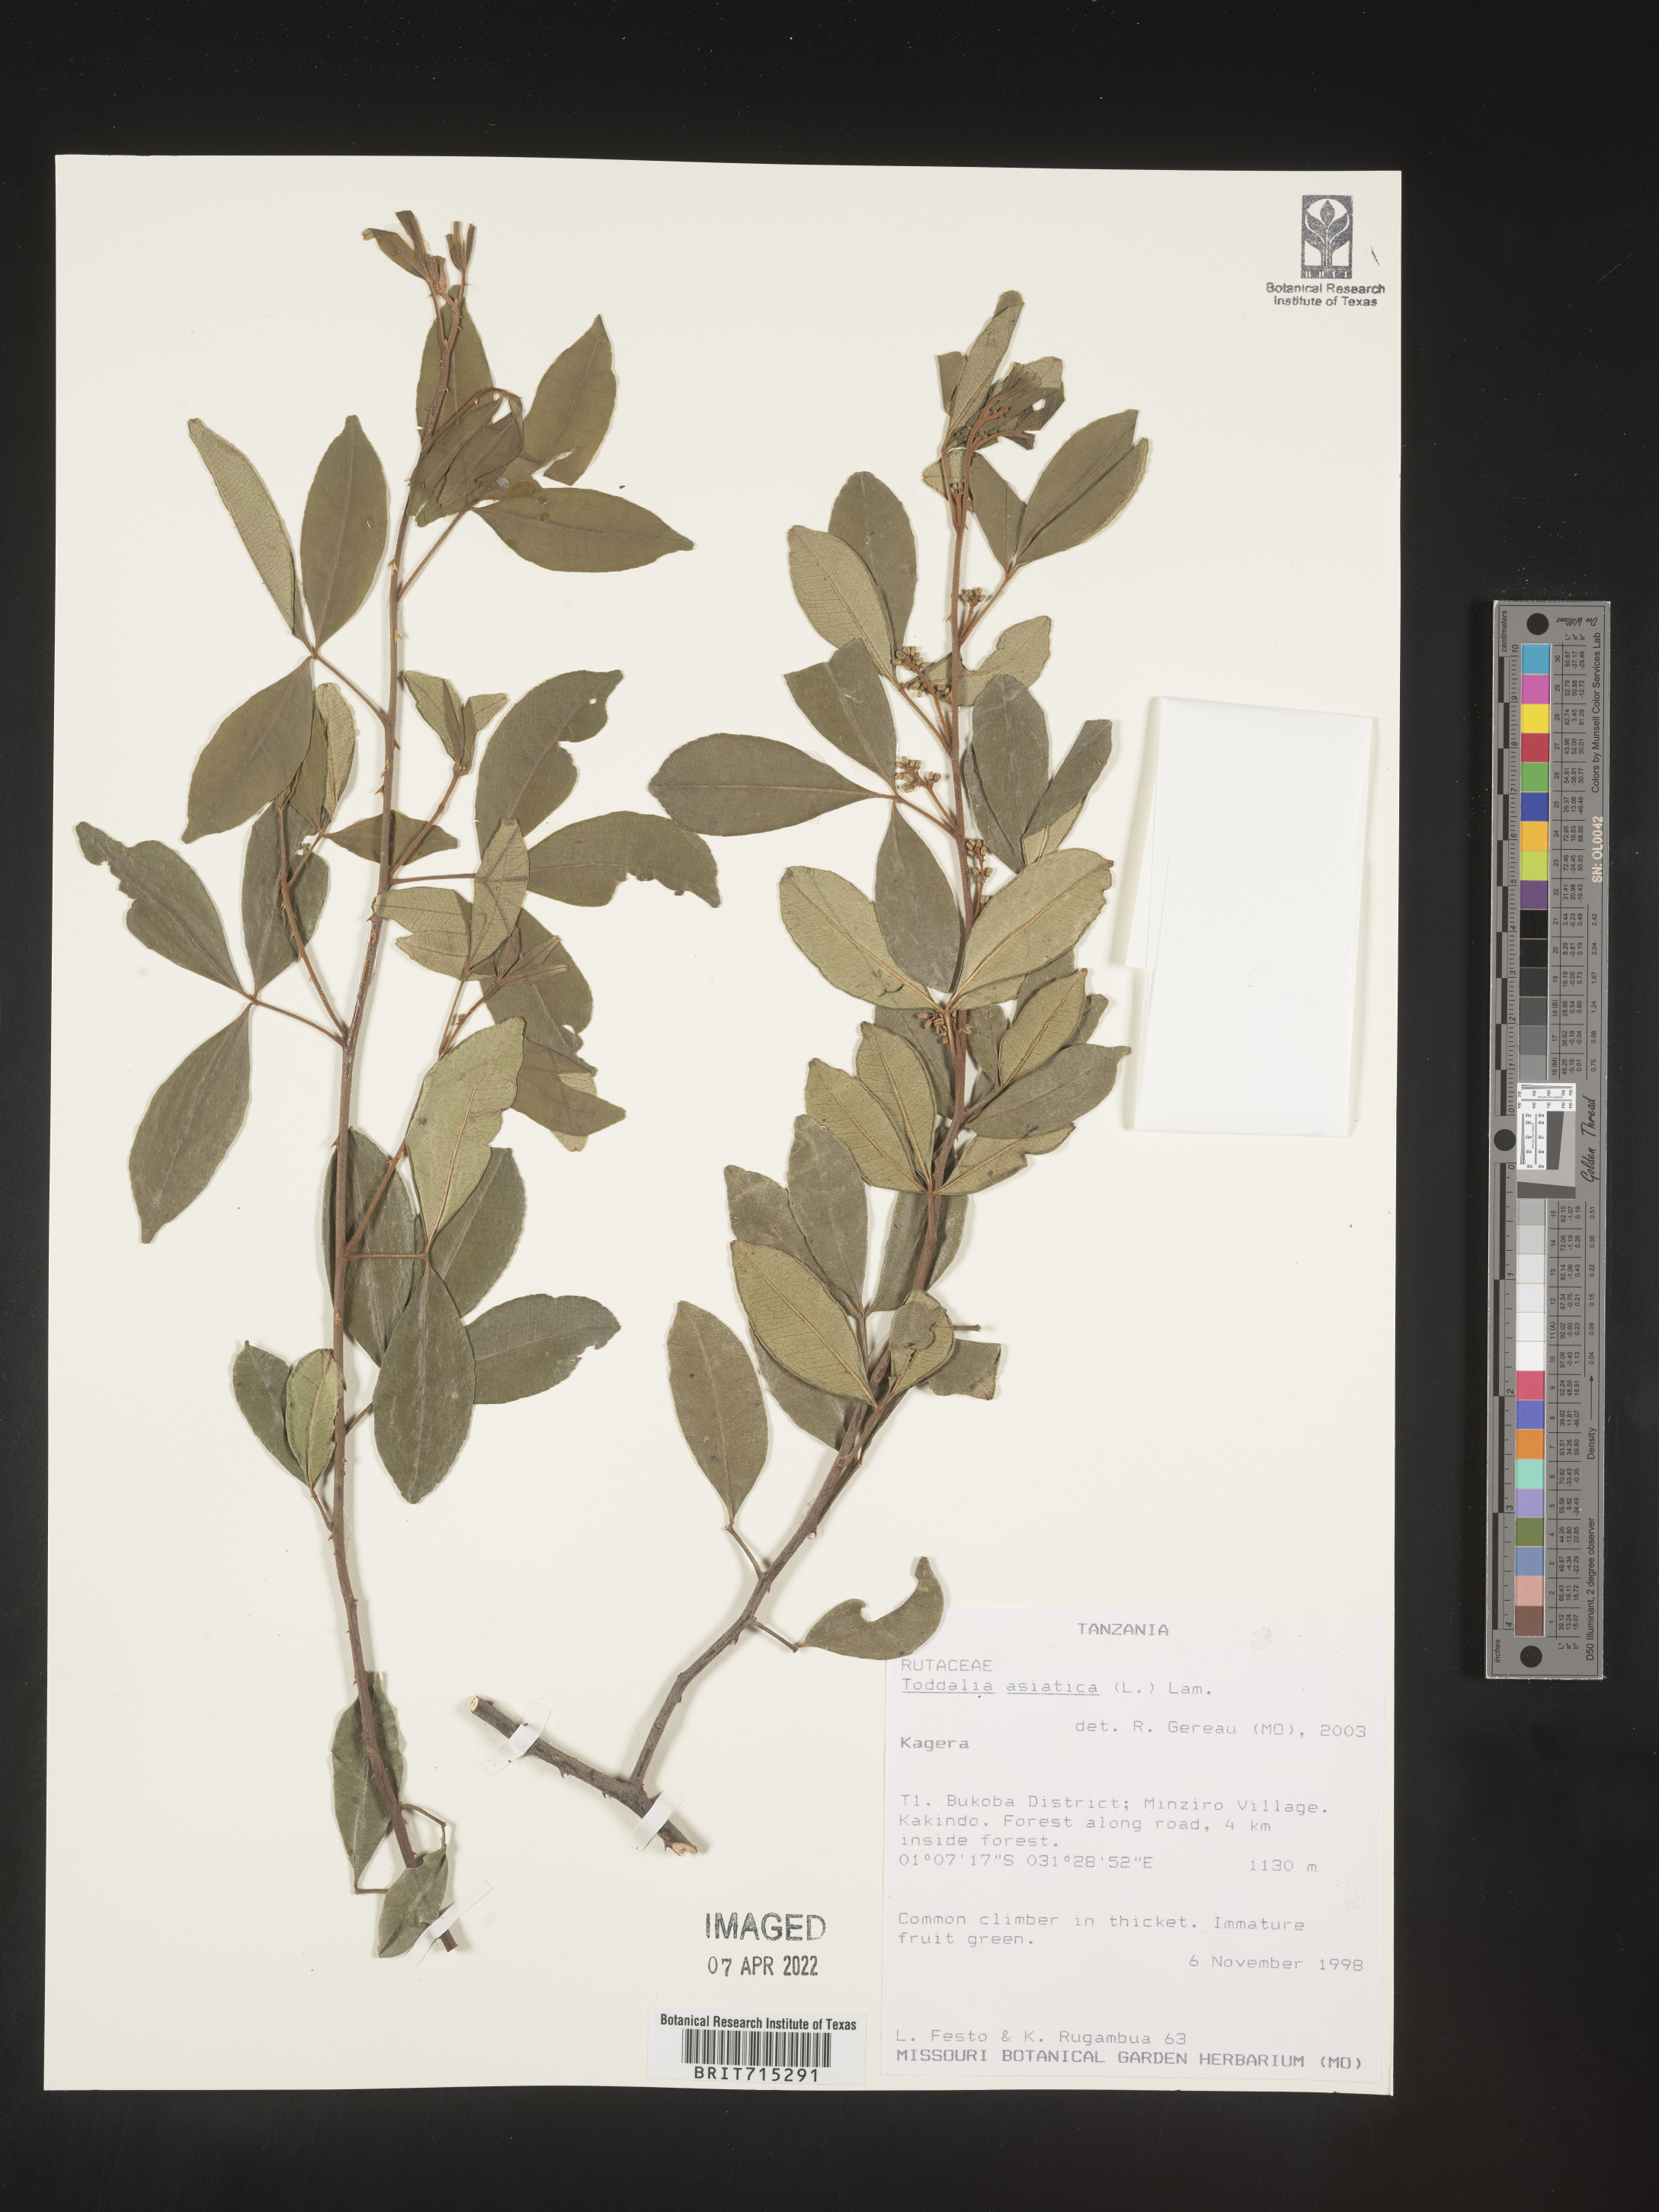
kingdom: Plantae
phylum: Tracheophyta
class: Magnoliopsida
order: Sapindales
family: Rutaceae
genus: Zanthoxylum
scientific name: Zanthoxylum
